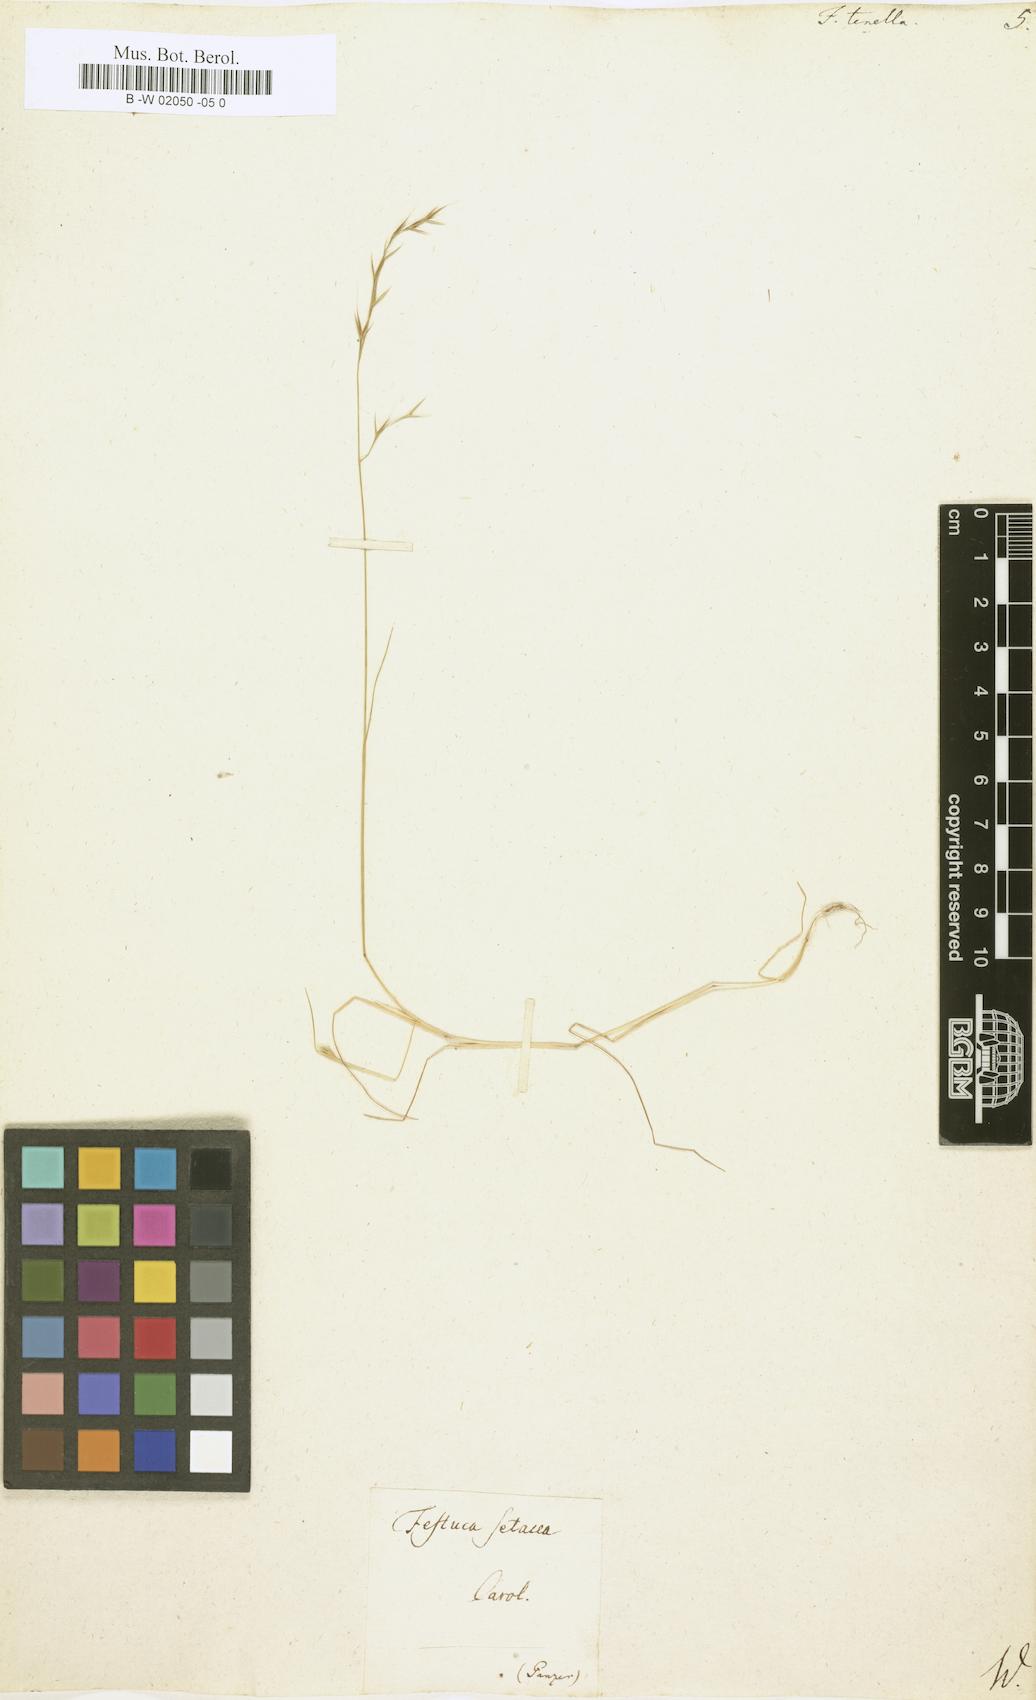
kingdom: Plantae
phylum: Tracheophyta
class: Liliopsida
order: Poales
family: Poaceae
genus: Festuca
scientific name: Festuca octoflora
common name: Sixweeks grass
